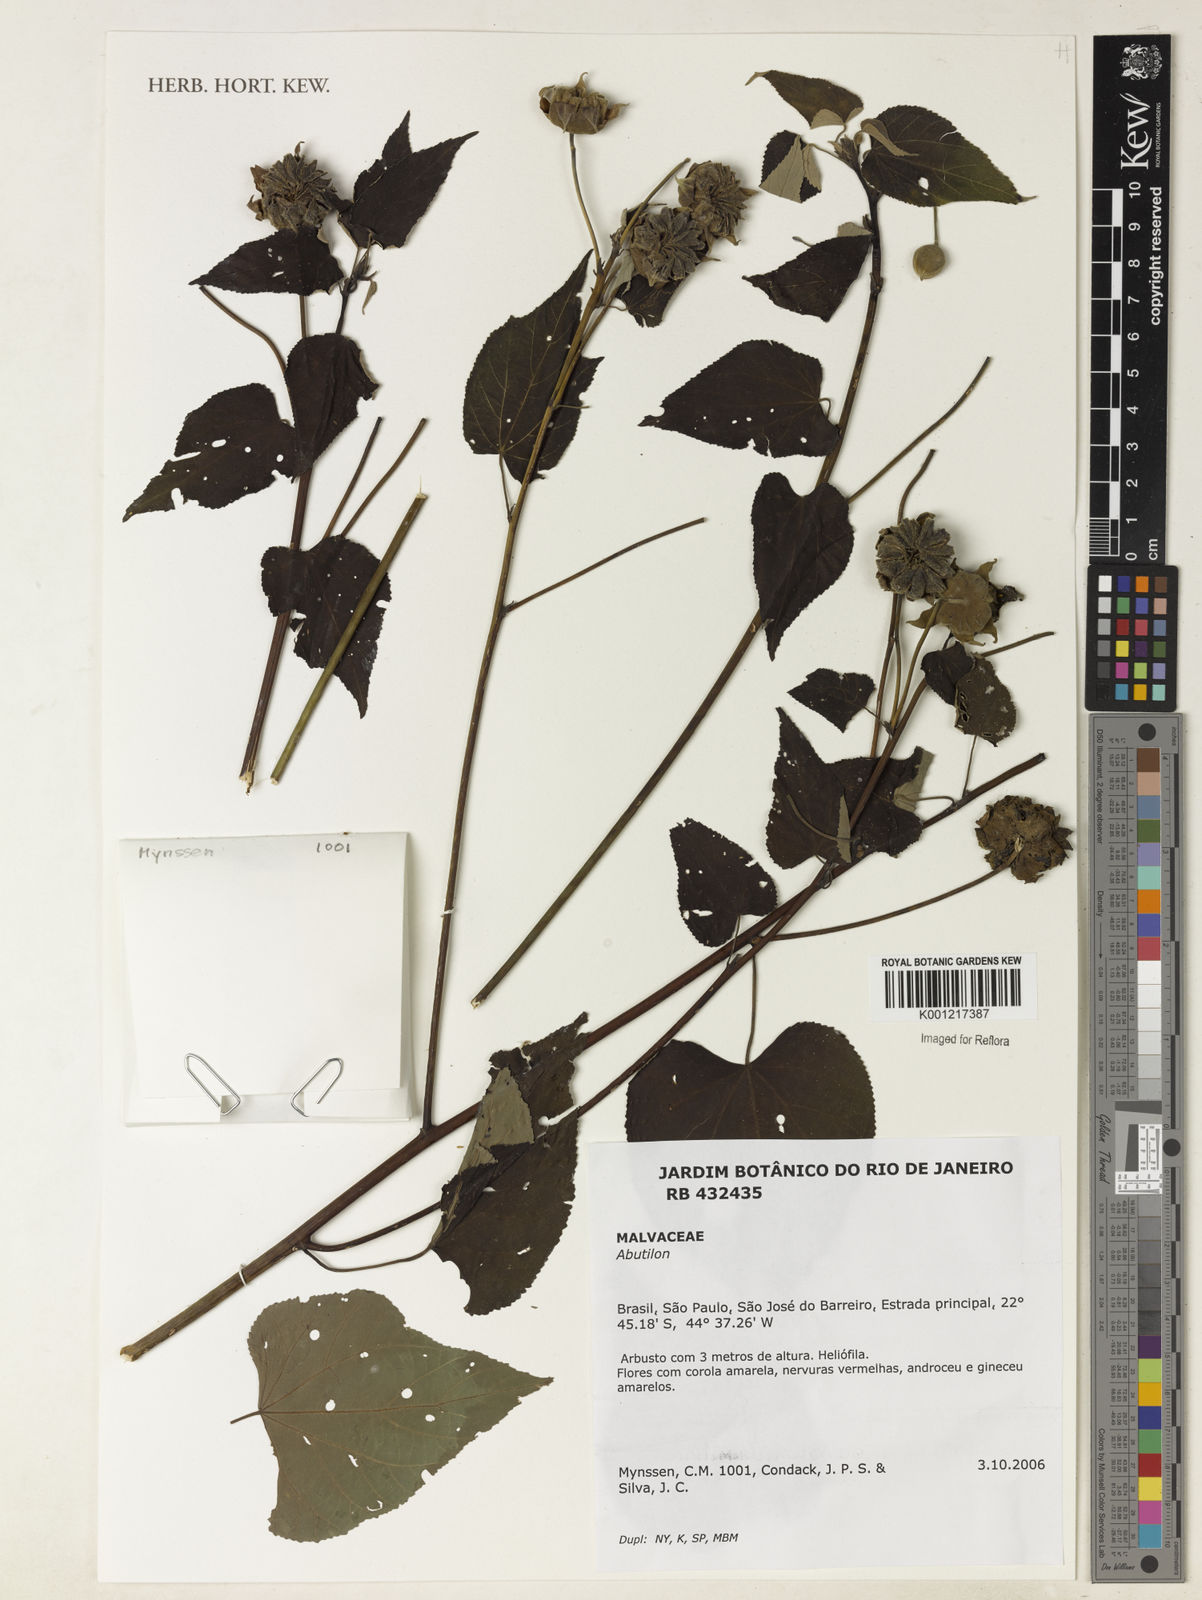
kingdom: Plantae
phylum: Tracheophyta
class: Magnoliopsida
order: Malvales
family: Malvaceae
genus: Abutilon
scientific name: Abutilon
